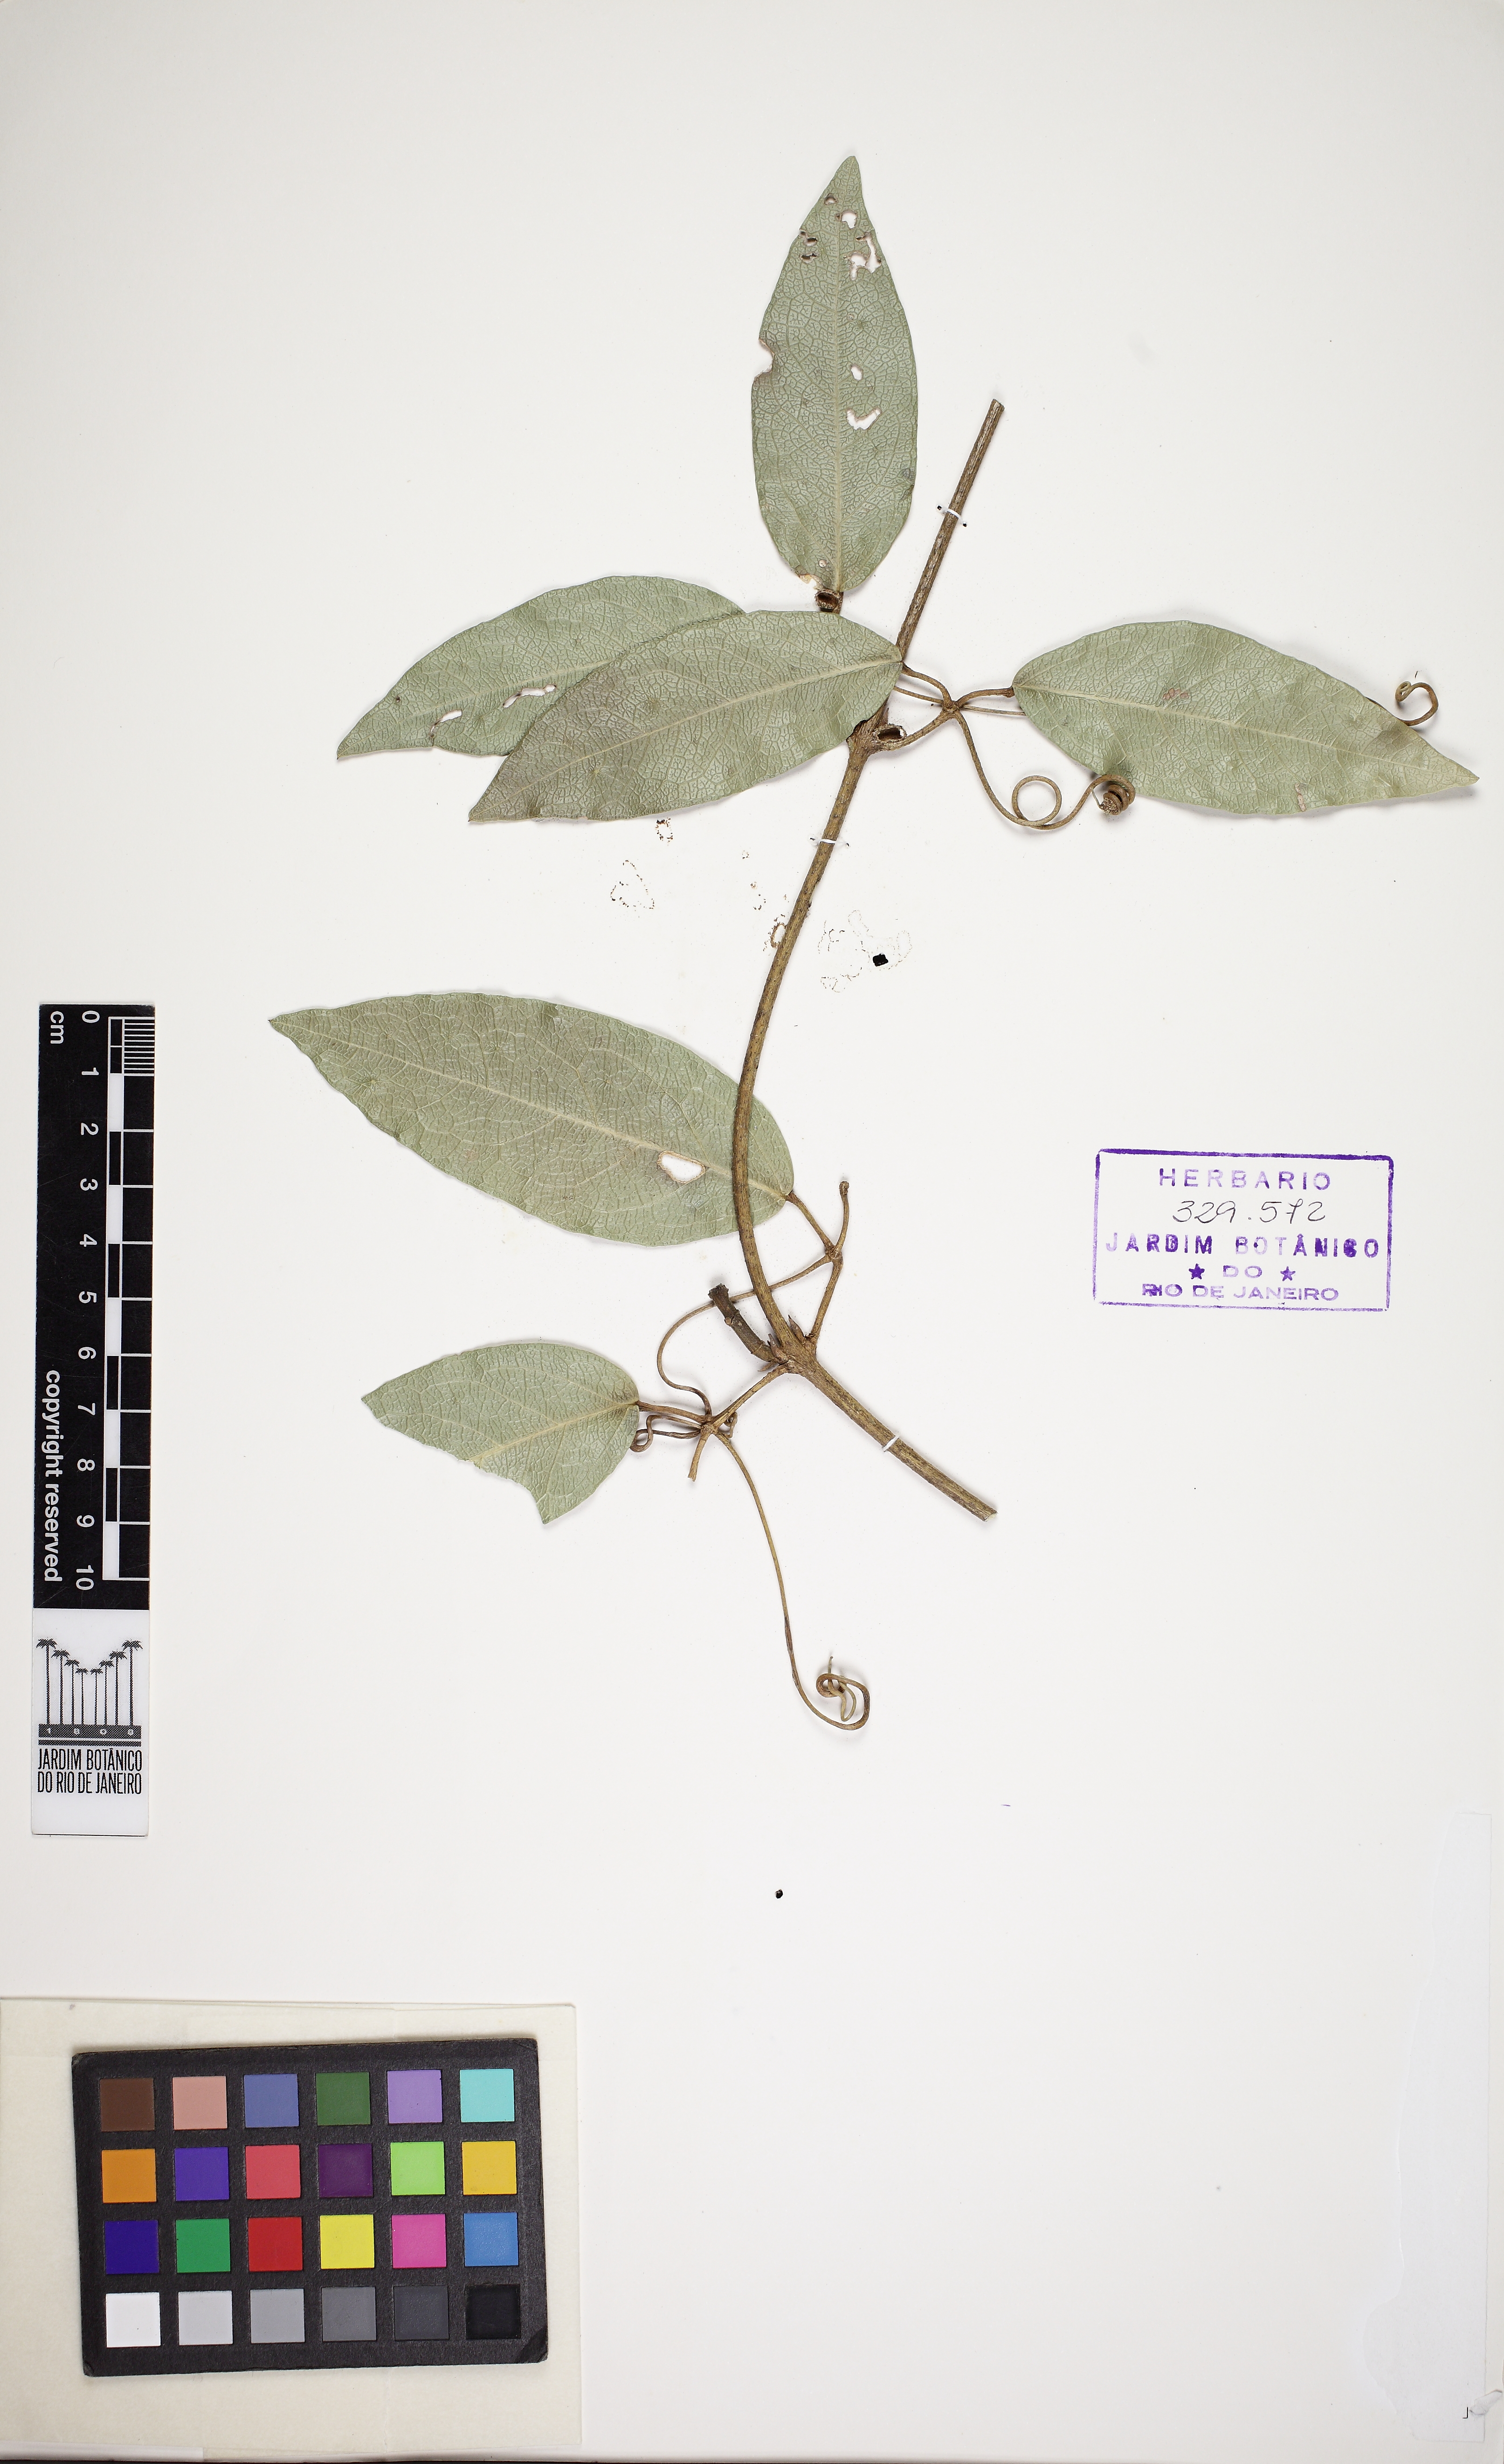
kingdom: Plantae
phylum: Tracheophyta
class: Magnoliopsida
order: Lamiales
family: Bignoniaceae
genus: Adenocalymma
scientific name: Adenocalymma acutissimum
